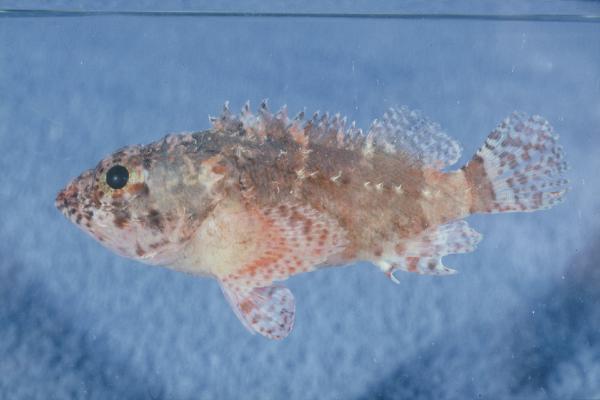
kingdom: Animalia
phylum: Chordata
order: Scorpaeniformes
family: Scorpaenidae
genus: Scorpaenodes
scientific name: Scorpaenodes parvipinnis
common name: Coral scorpionfish
